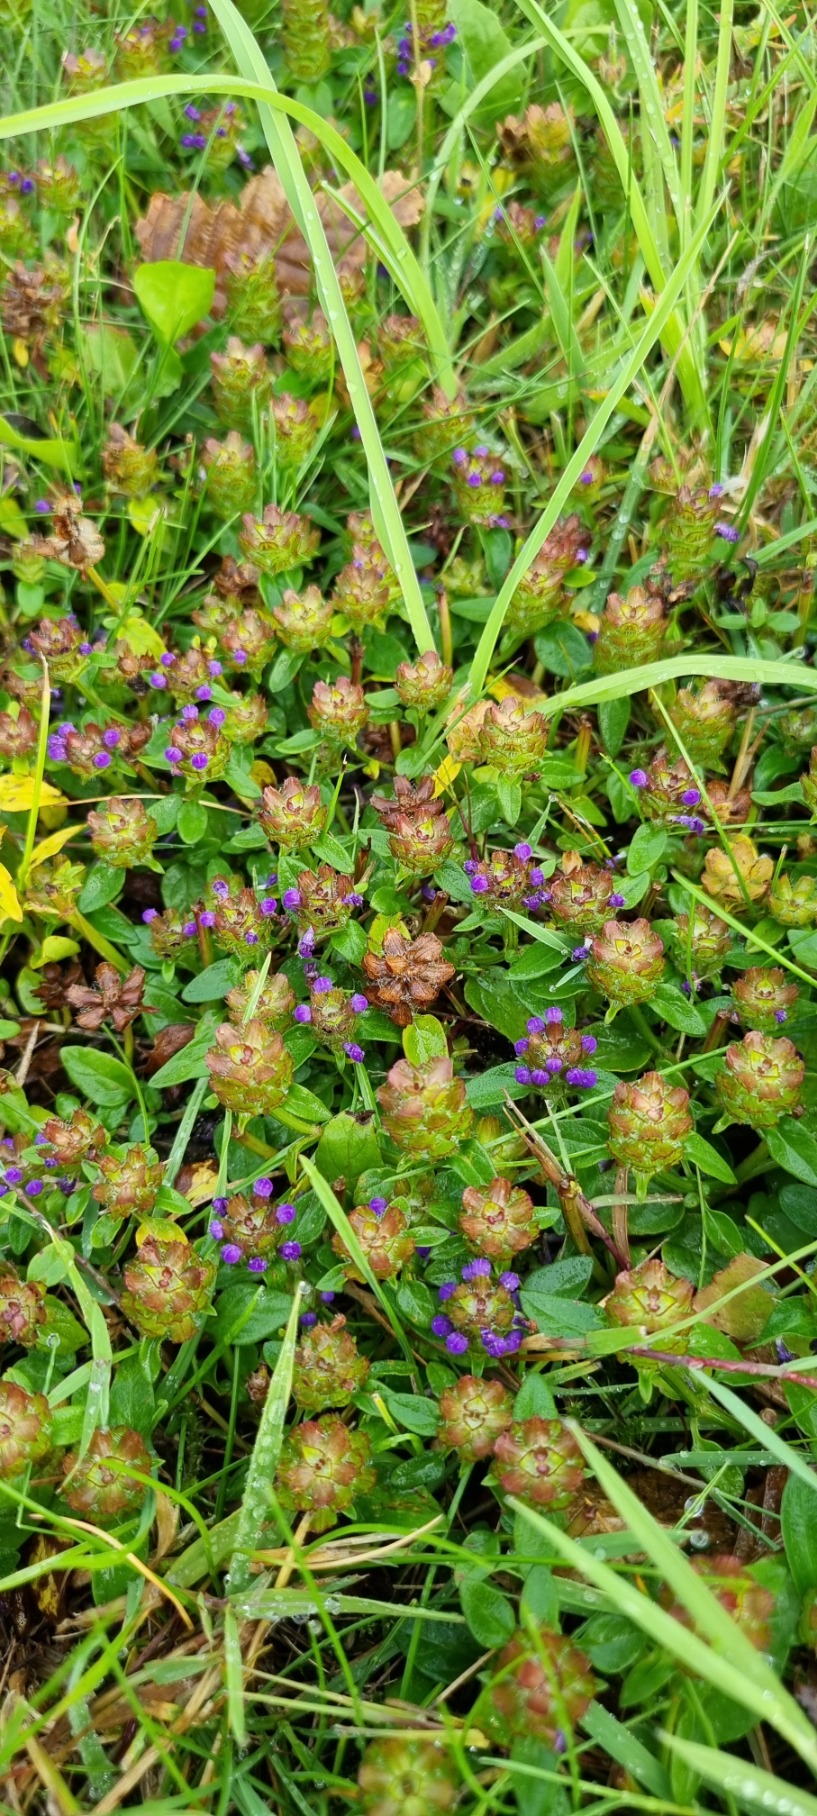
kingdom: Plantae
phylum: Tracheophyta
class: Magnoliopsida
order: Lamiales
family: Lamiaceae
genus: Prunella
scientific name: Prunella vulgaris
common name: Almindelig brunelle
